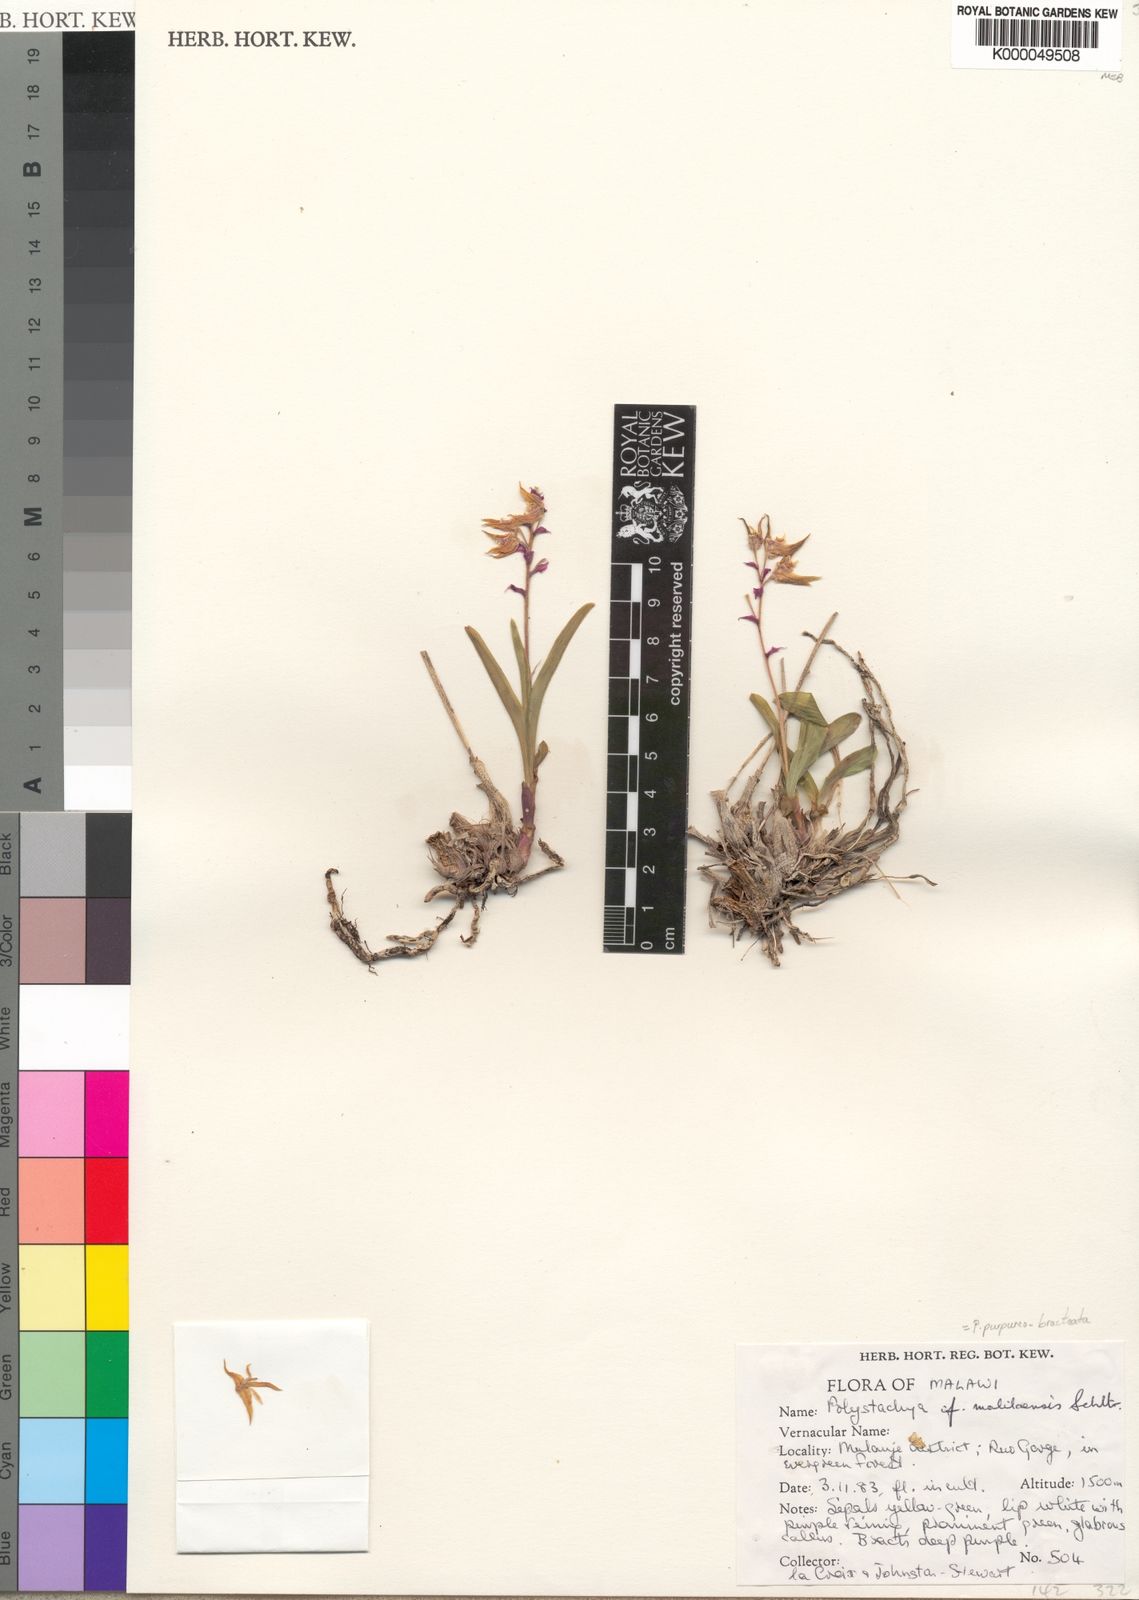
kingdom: Plantae
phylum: Tracheophyta
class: Liliopsida
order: Asparagales
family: Orchidaceae
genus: Polystachya
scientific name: Polystachya purpureobracteata
